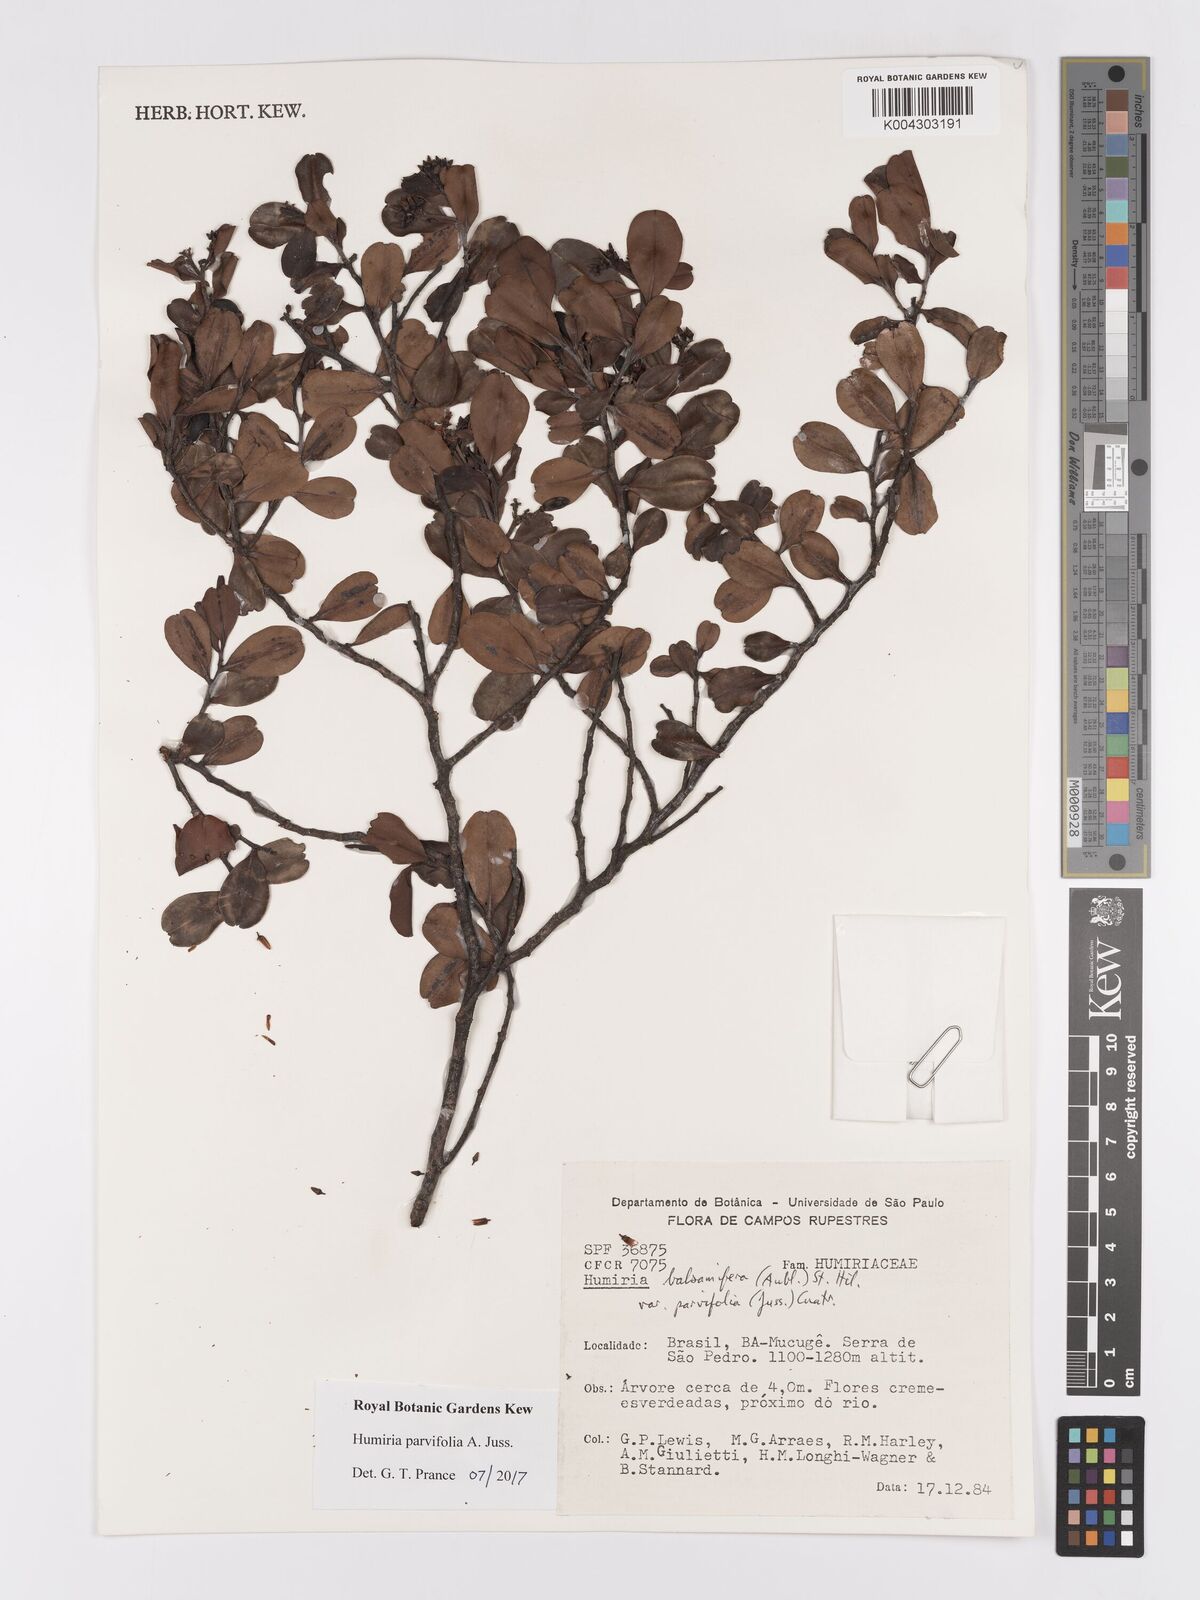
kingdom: Plantae
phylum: Tracheophyta
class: Magnoliopsida
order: Malpighiales
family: Humiriaceae
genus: Humiria
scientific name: Humiria parvifolia
